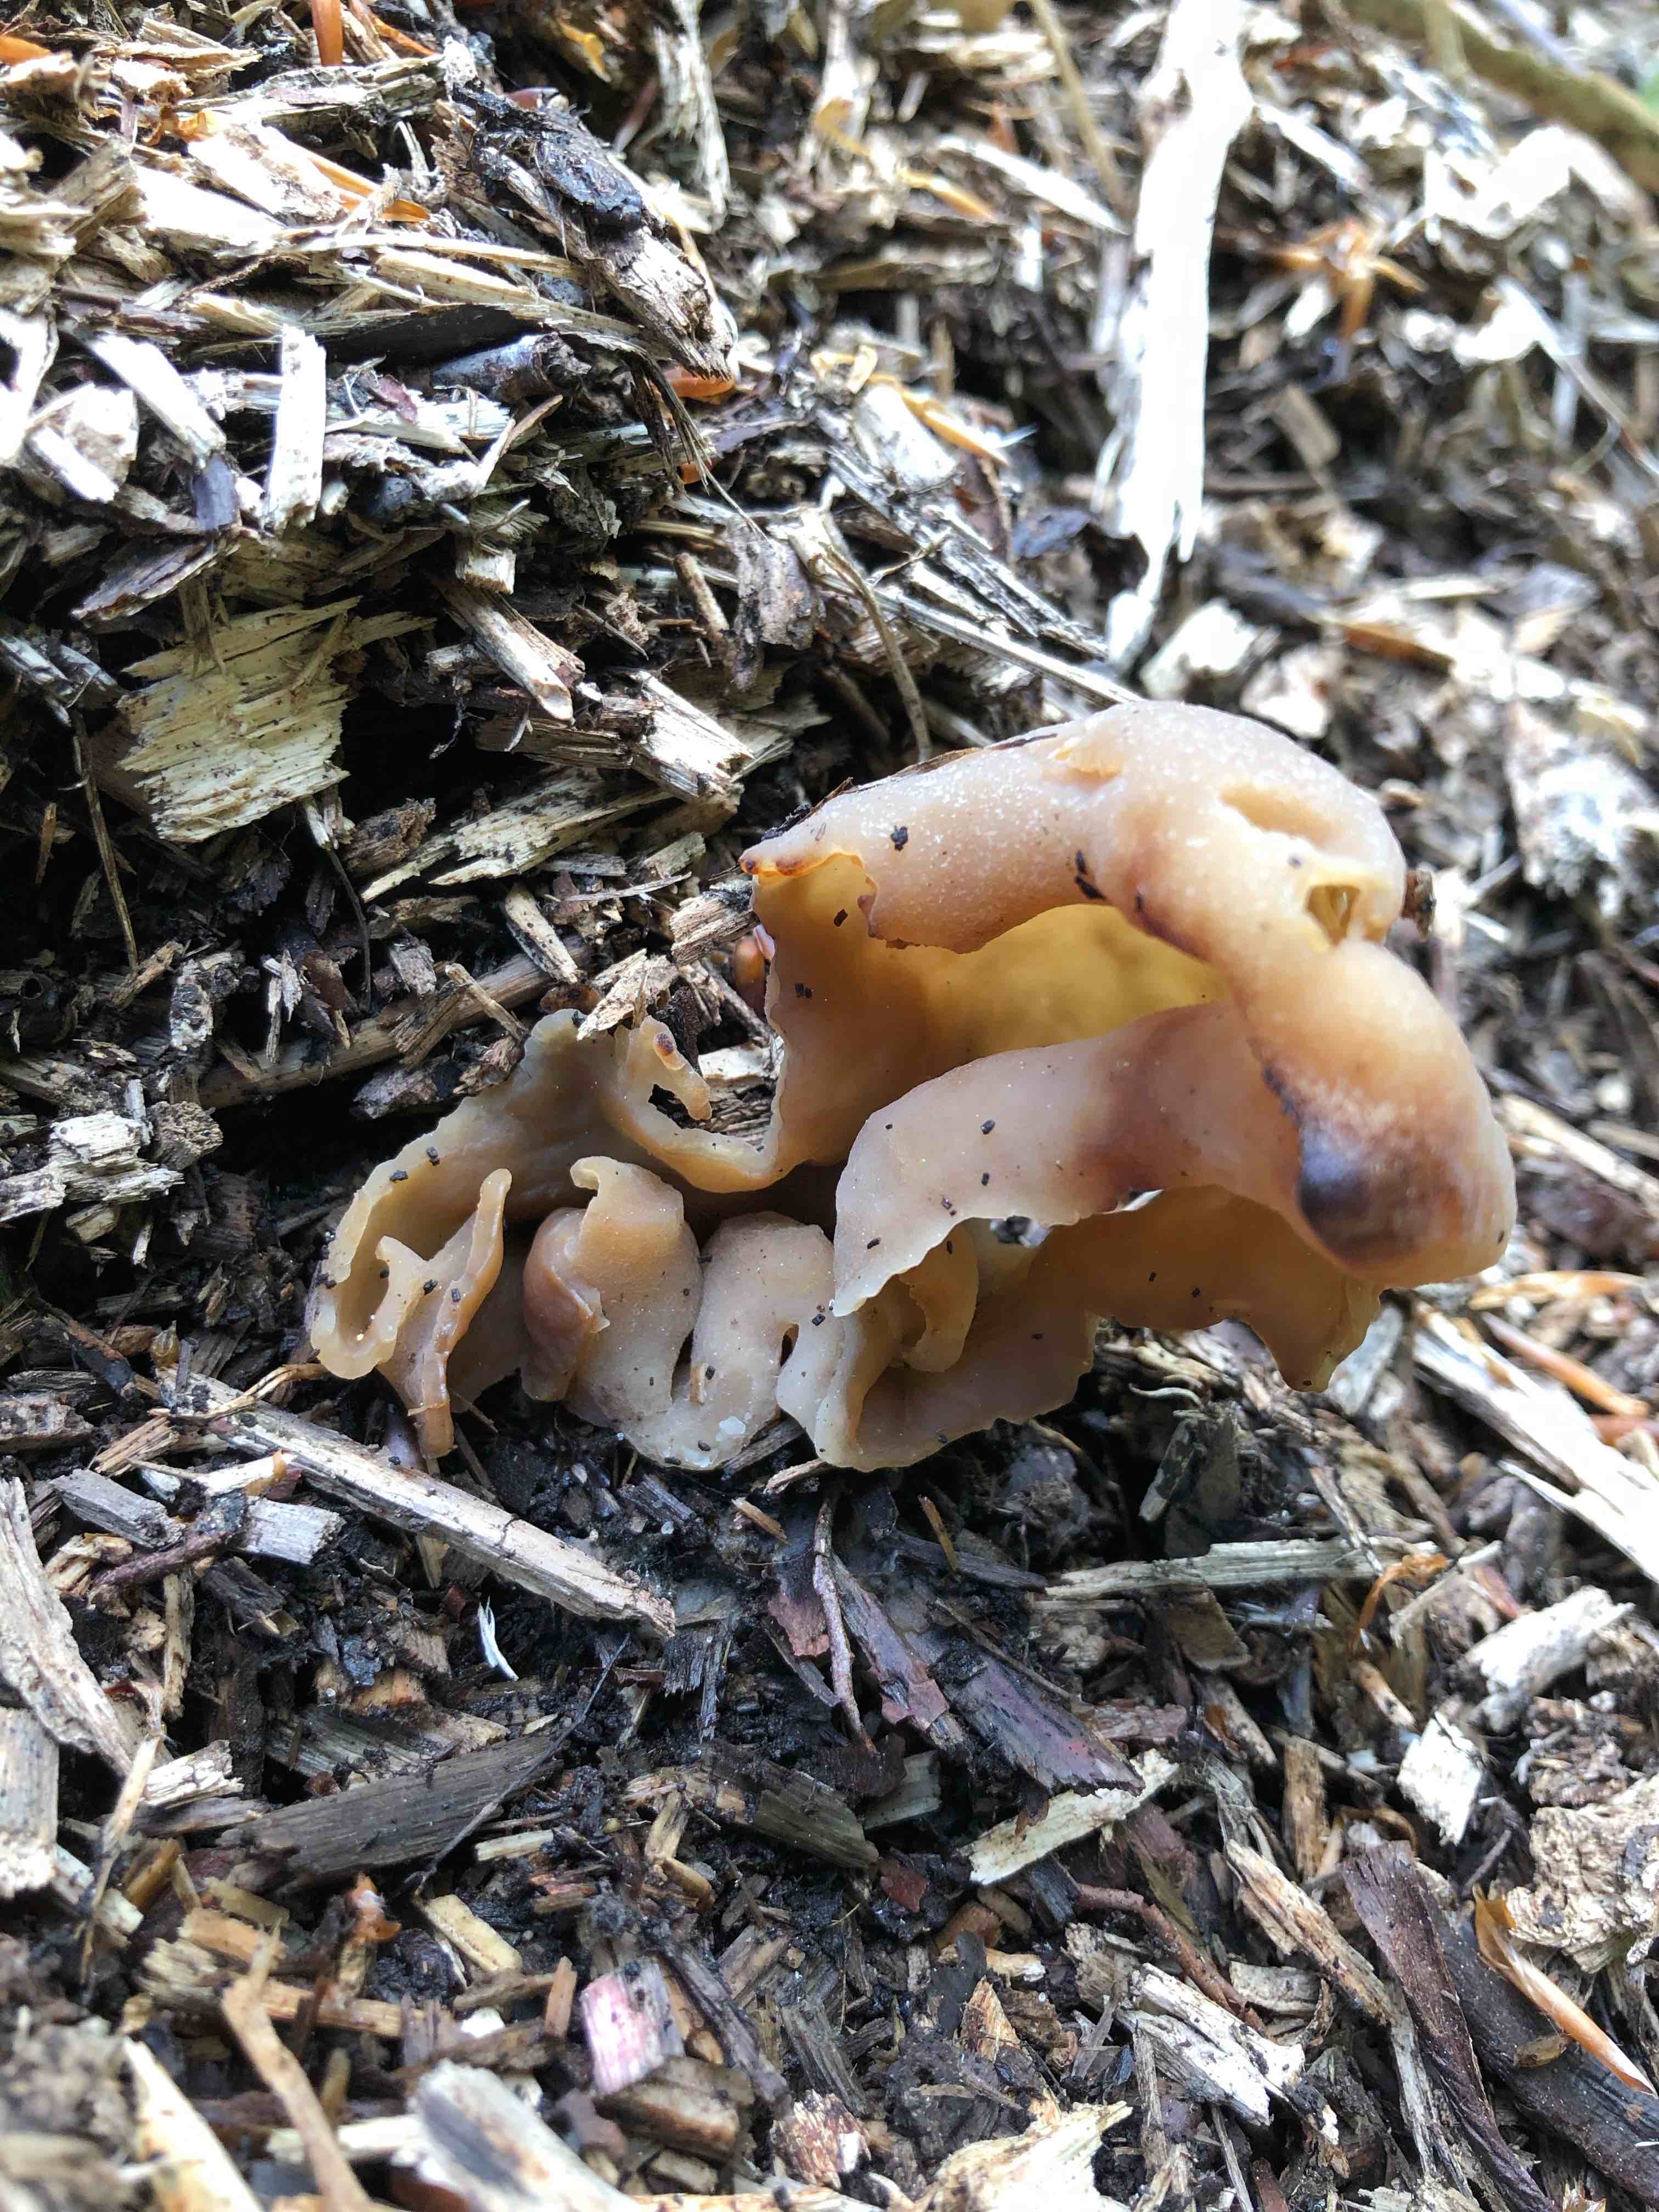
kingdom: Fungi
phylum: Ascomycota
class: Pezizomycetes
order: Pezizales
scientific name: Pezizales
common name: bægersvampordenen
